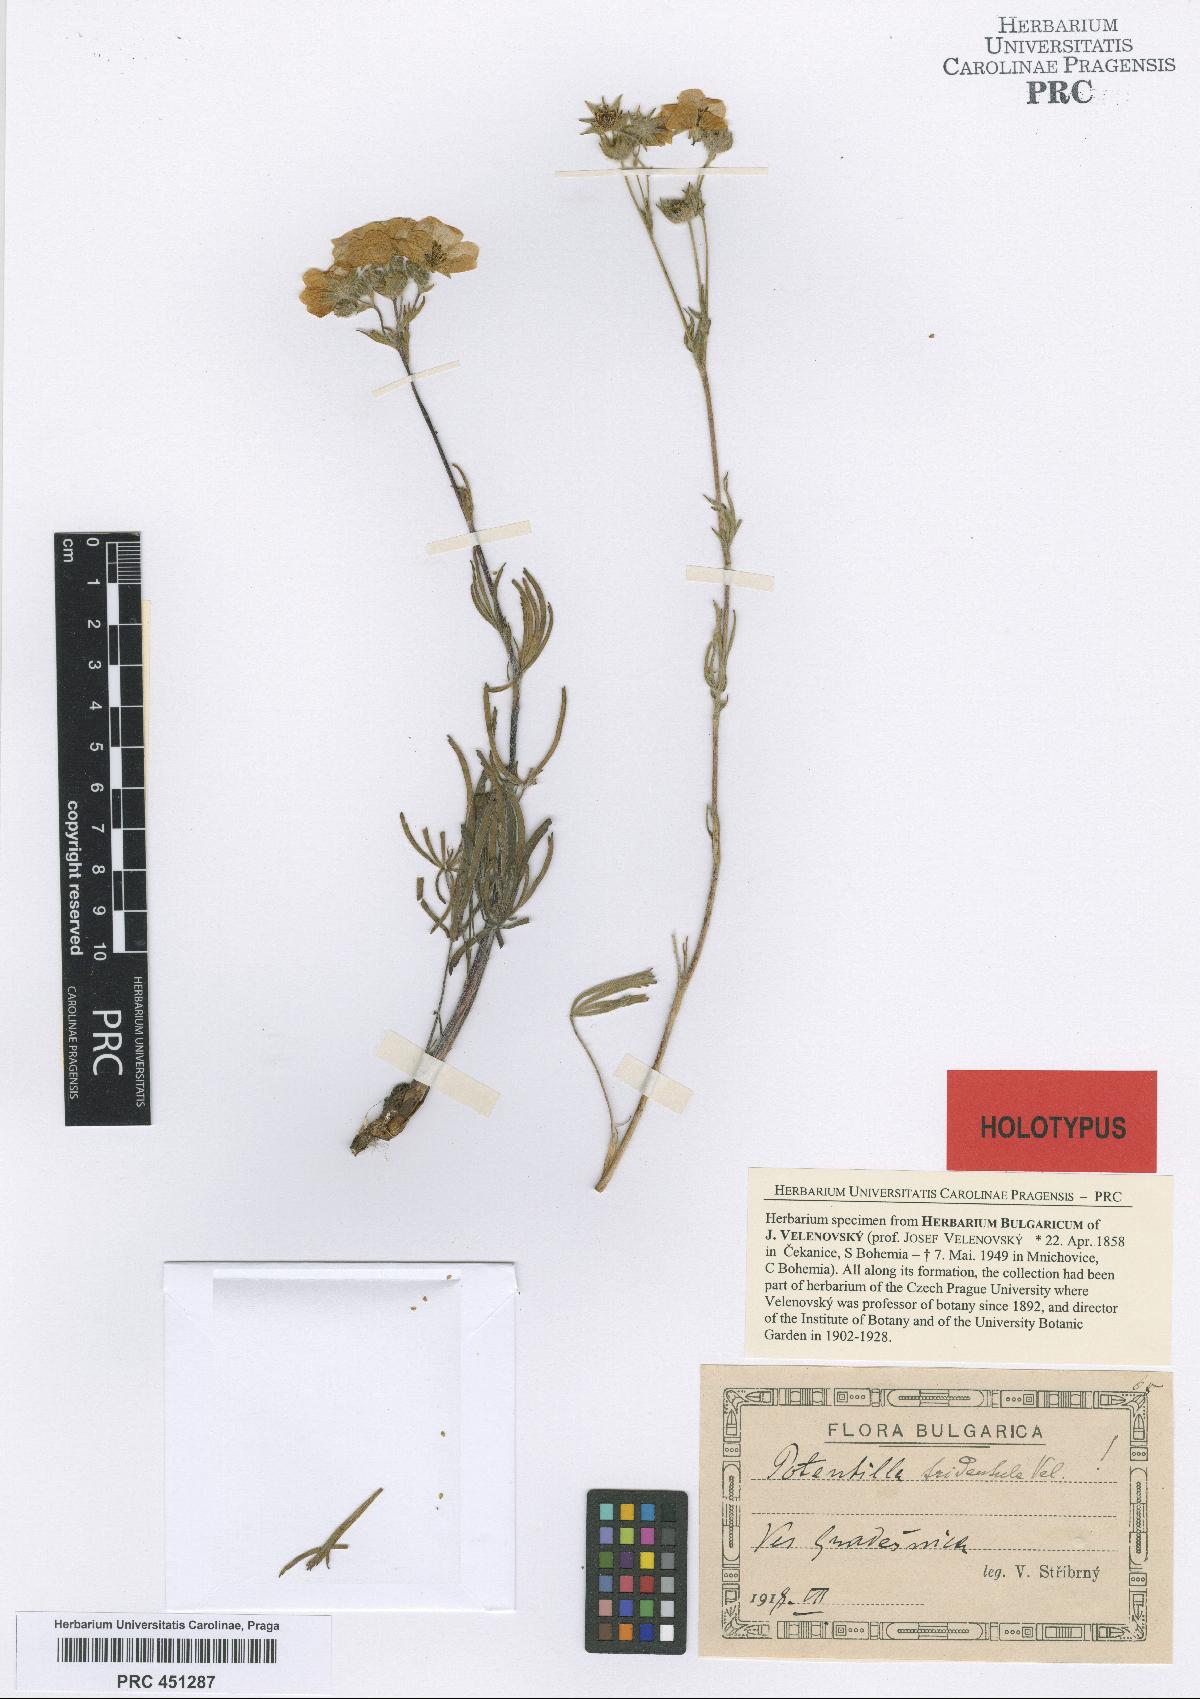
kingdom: Plantae
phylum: Tracheophyta
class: Magnoliopsida
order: Rosales
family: Rosaceae
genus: Potentilla
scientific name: Potentilla tridentula
